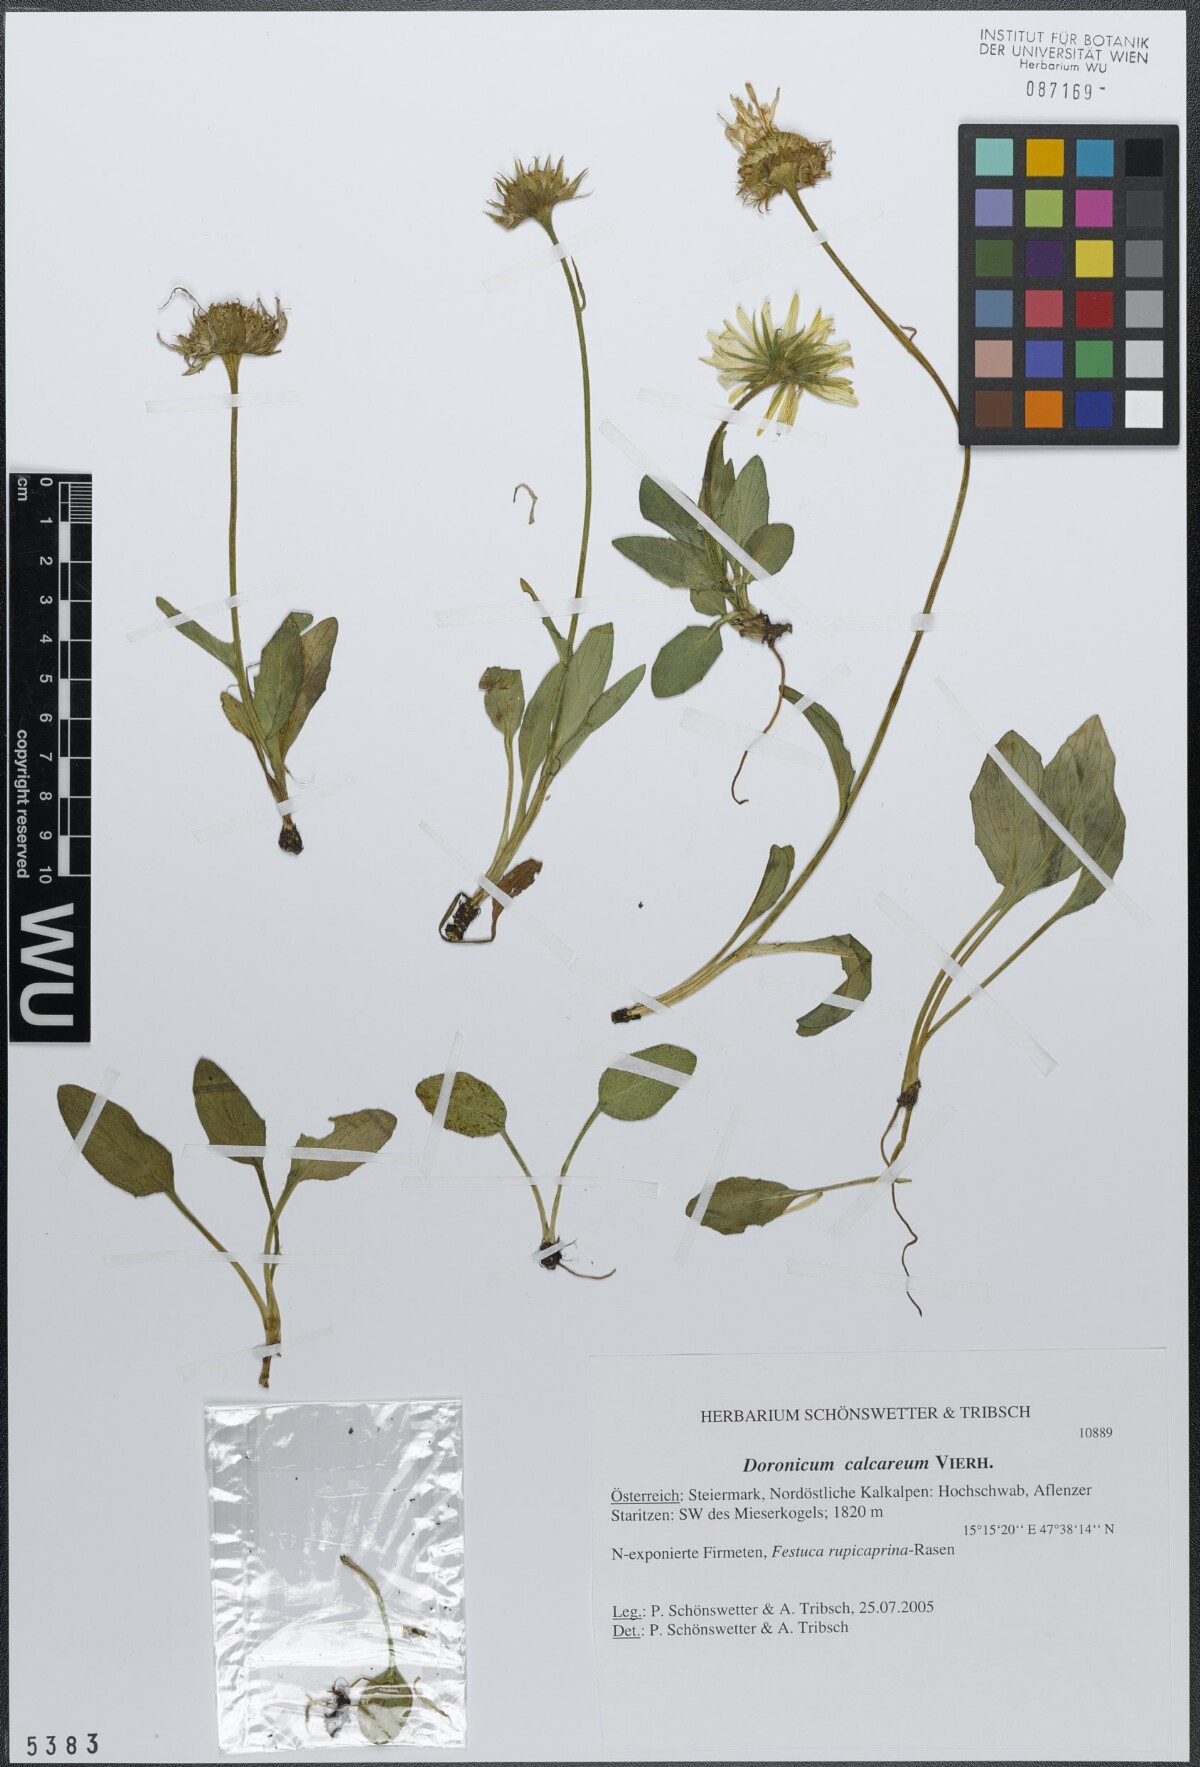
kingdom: Plantae
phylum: Tracheophyta
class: Magnoliopsida
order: Asterales
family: Asteraceae
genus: Doronicum
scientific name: Doronicum glaciale
